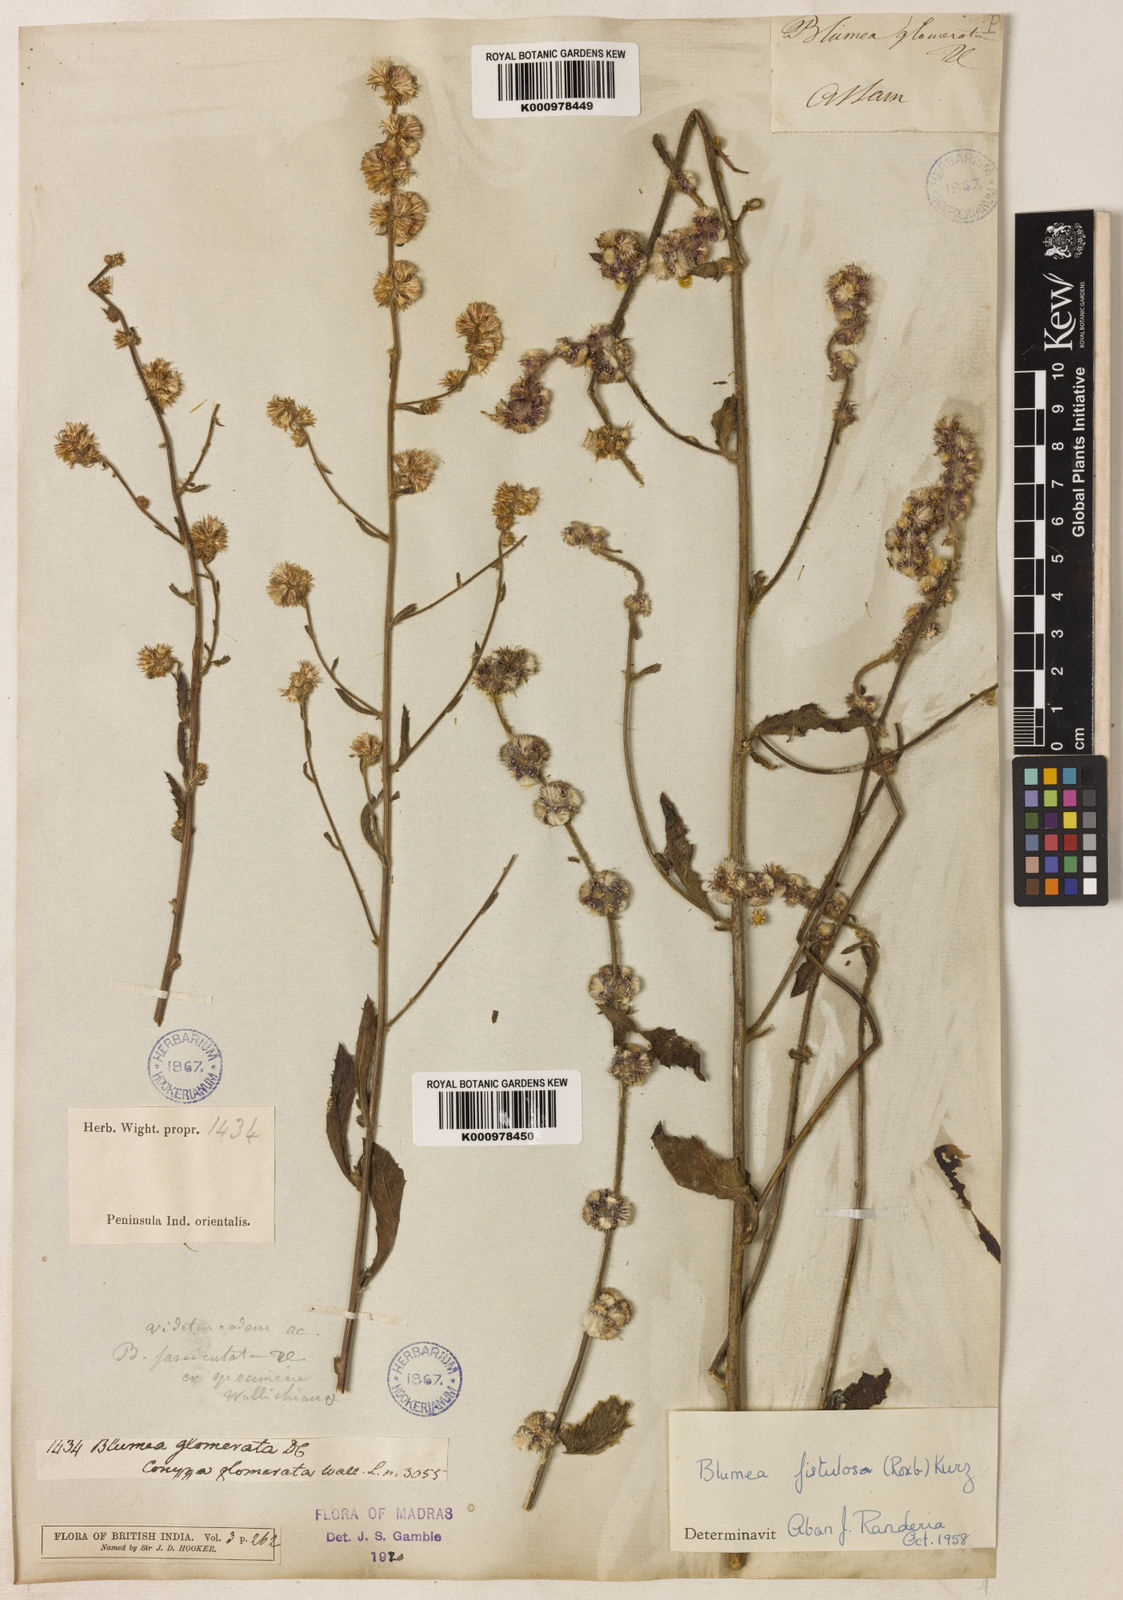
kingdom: Plantae
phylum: Tracheophyta
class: Magnoliopsida
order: Asterales
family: Asteraceae
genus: Blumea
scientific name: Blumea fistulosa
